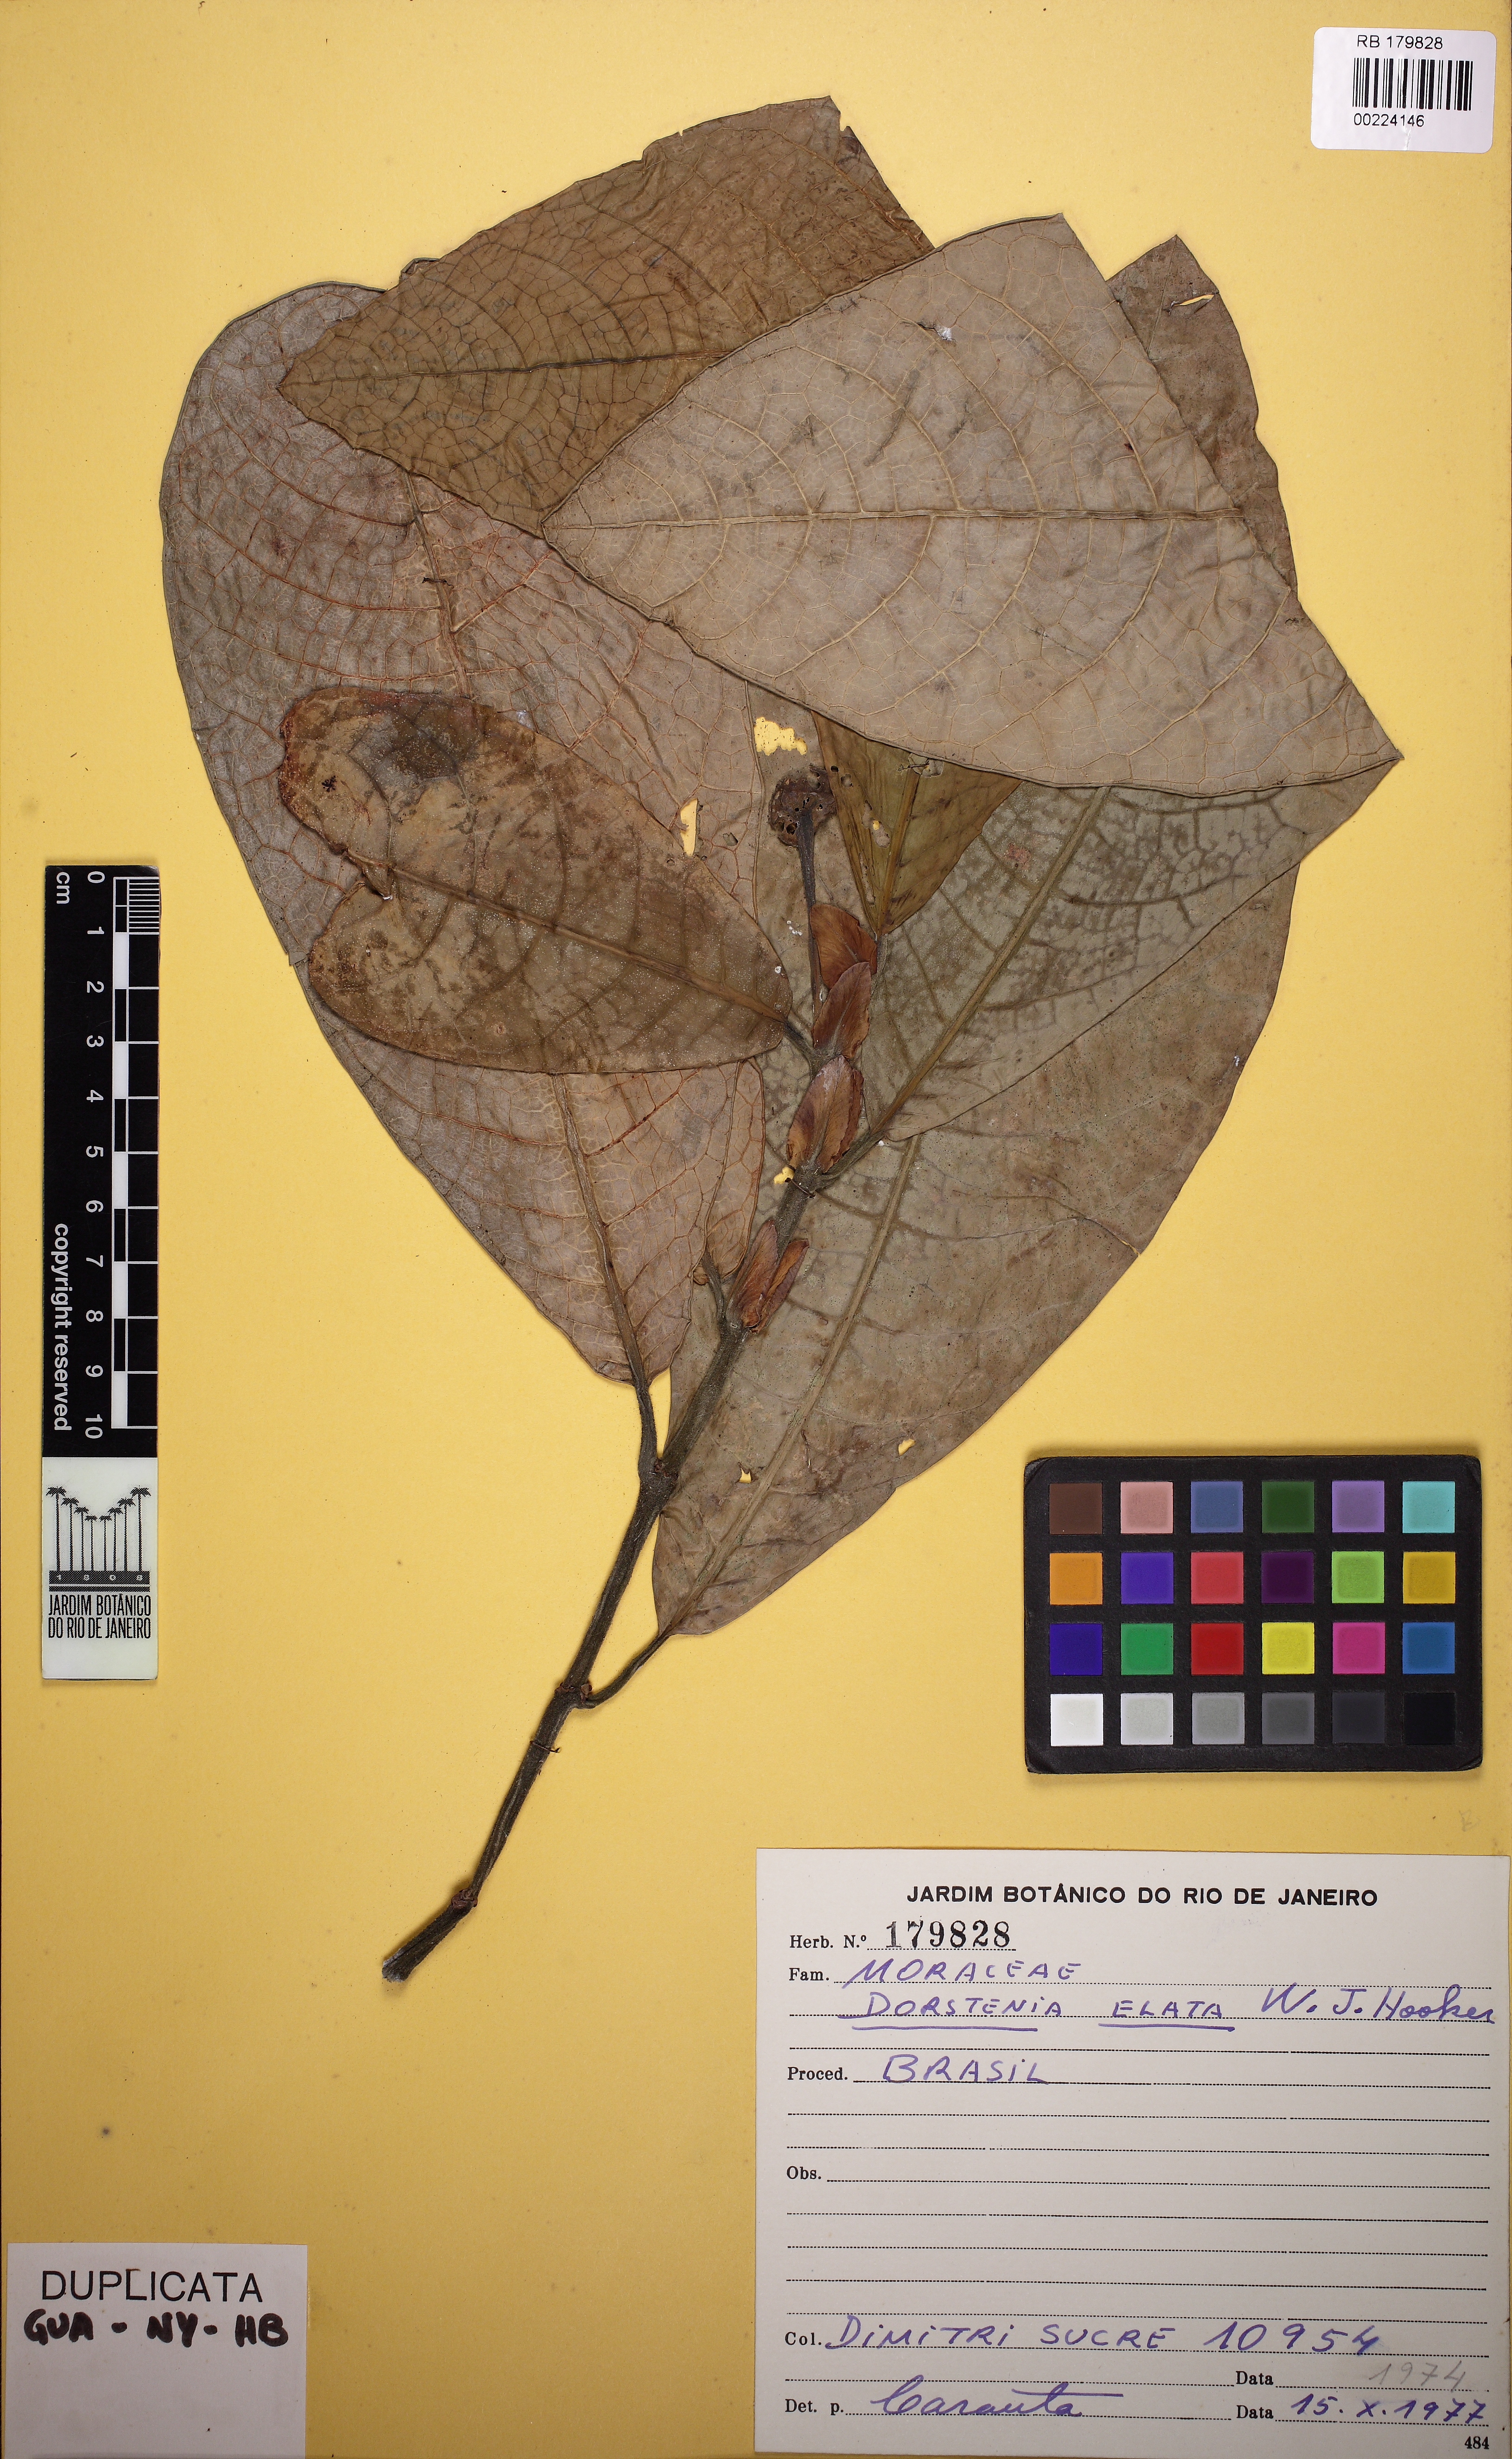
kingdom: Plantae
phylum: Tracheophyta
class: Magnoliopsida
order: Rosales
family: Moraceae
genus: Dorstenia
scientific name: Dorstenia elata
